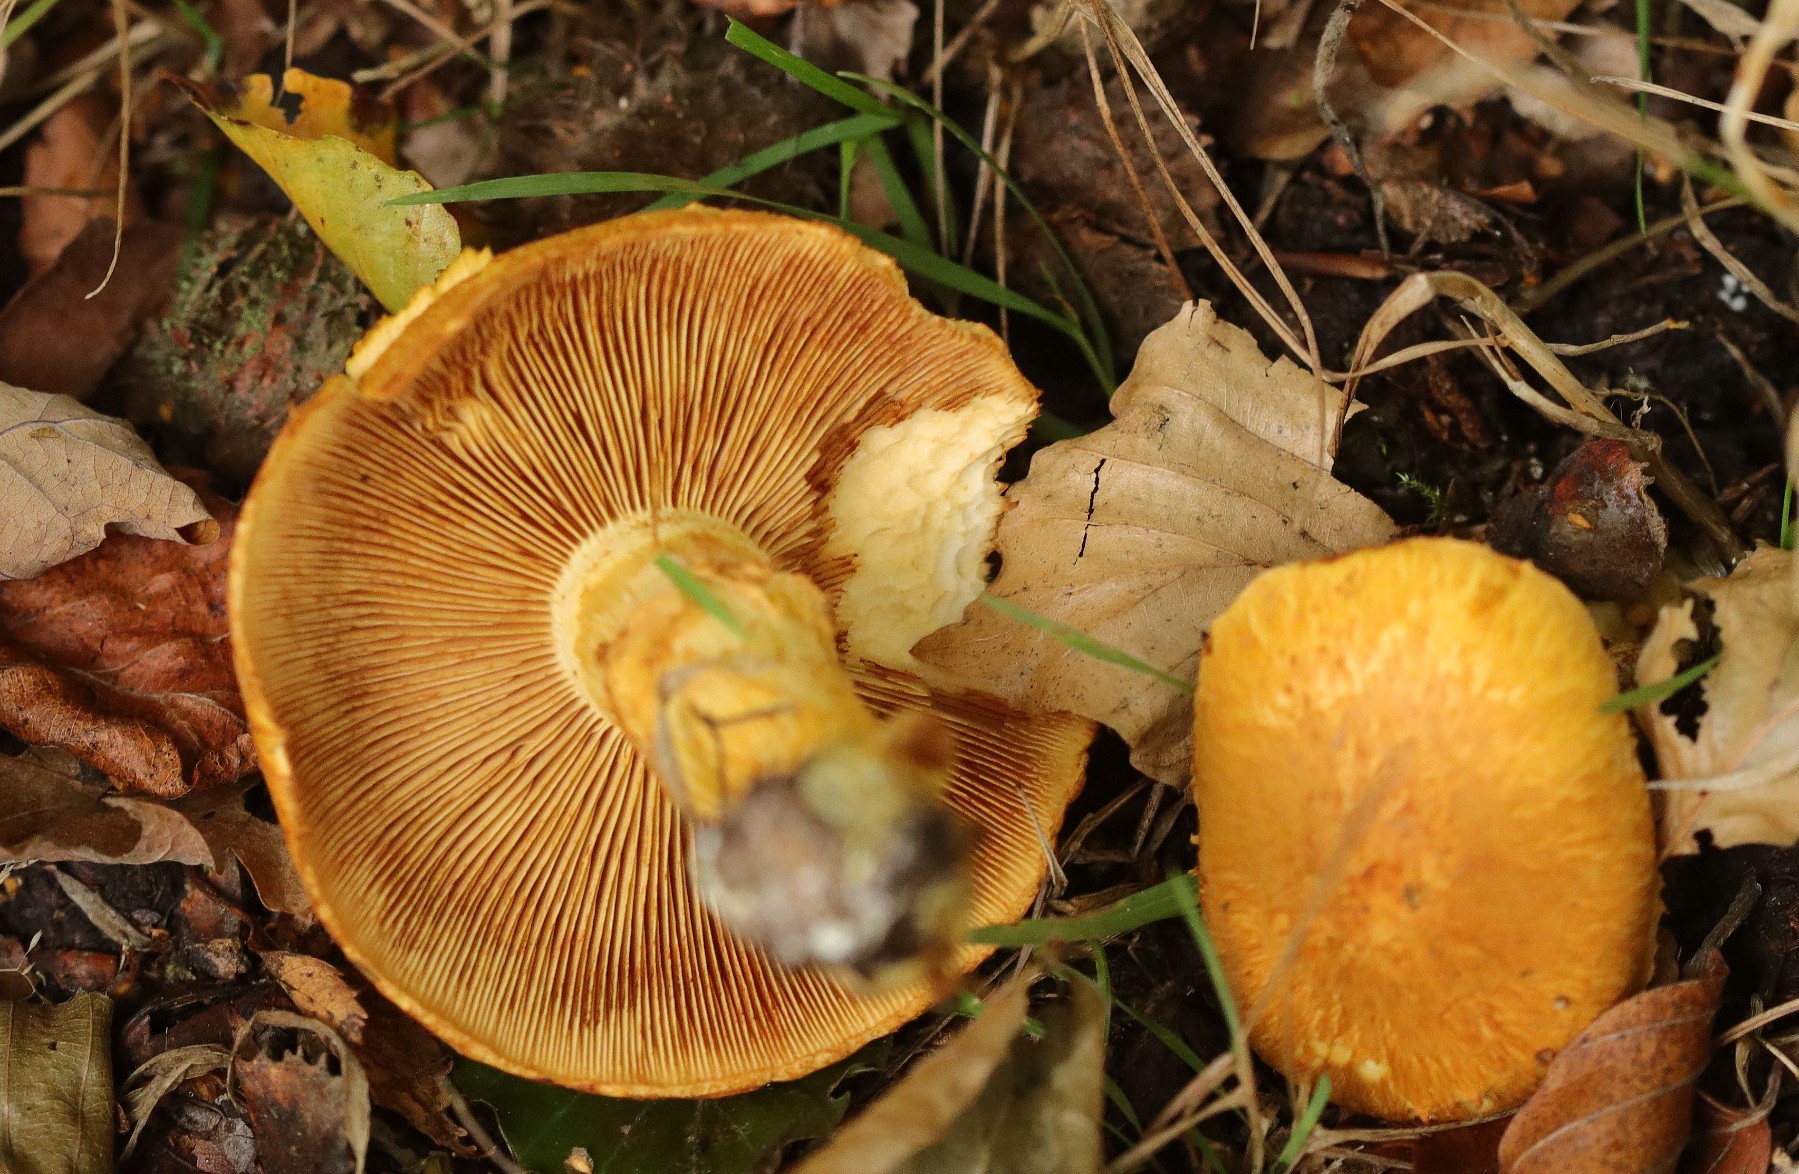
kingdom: Fungi
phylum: Basidiomycota
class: Agaricomycetes
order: Agaricales
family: Hymenogastraceae
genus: Gymnopilus
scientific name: Gymnopilus spectabilis
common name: fibret flammehat
